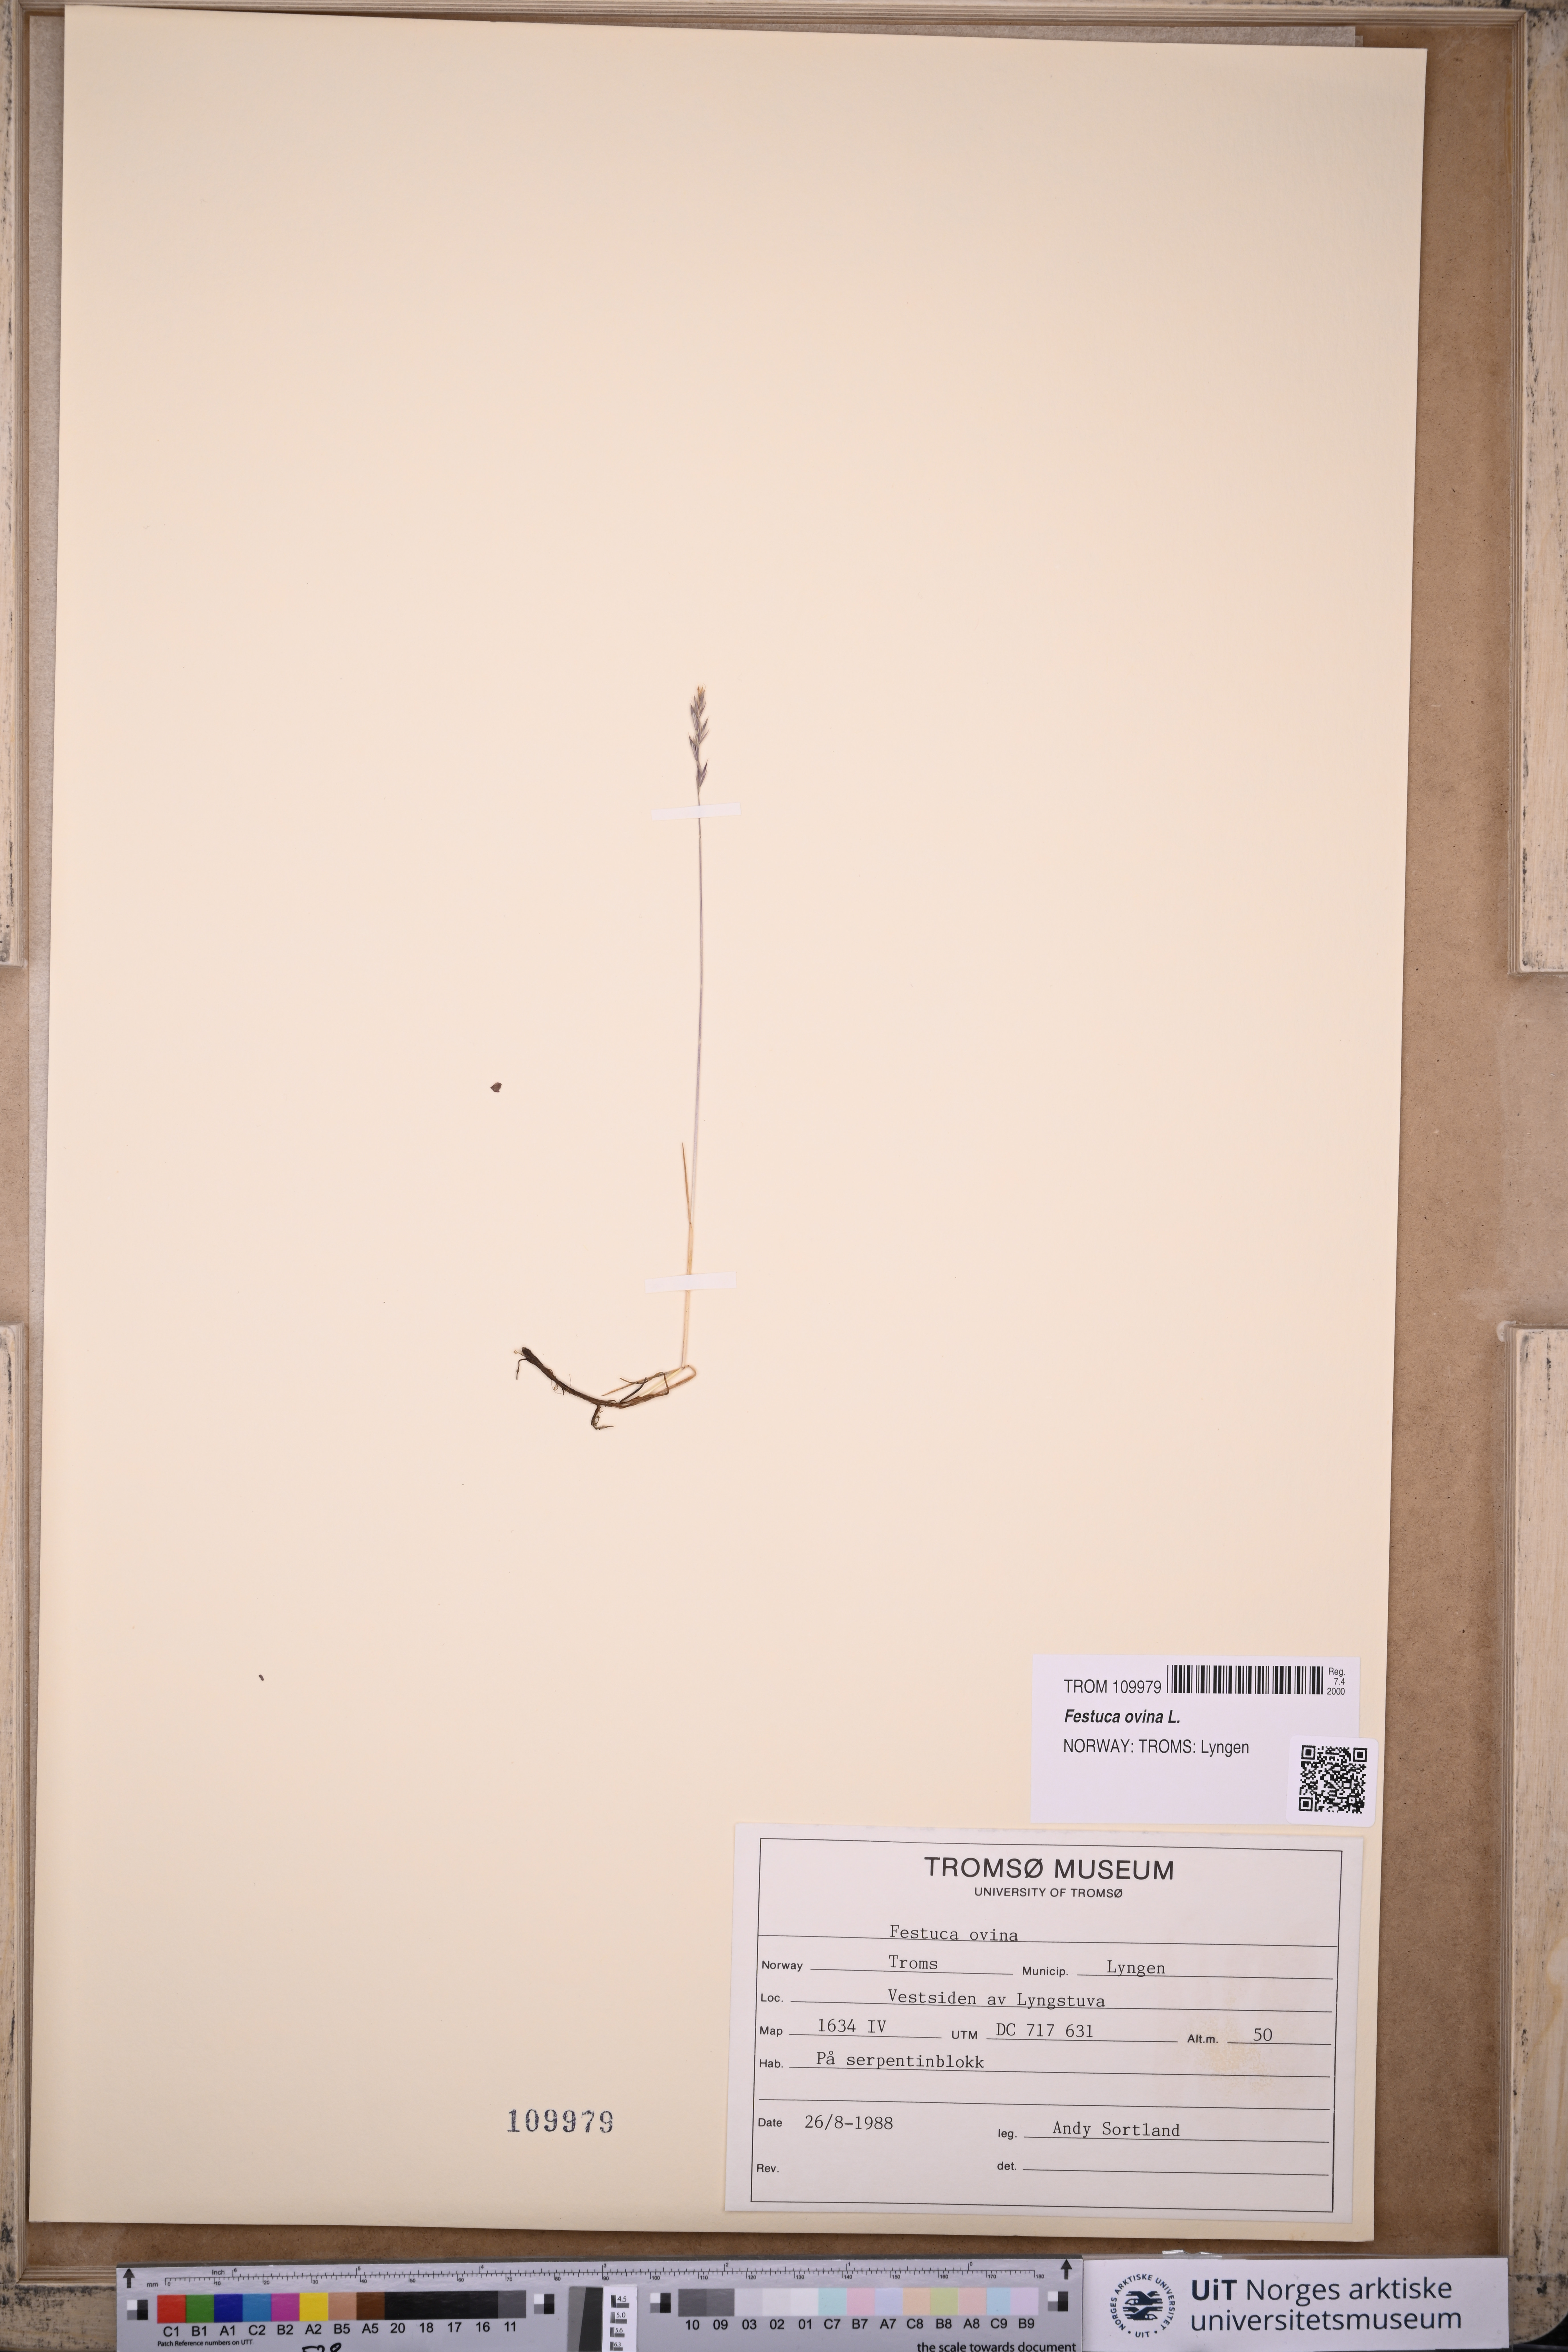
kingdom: Plantae
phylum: Tracheophyta
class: Liliopsida
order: Poales
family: Poaceae
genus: Festuca
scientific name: Festuca ovina
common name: Sheep fescue
